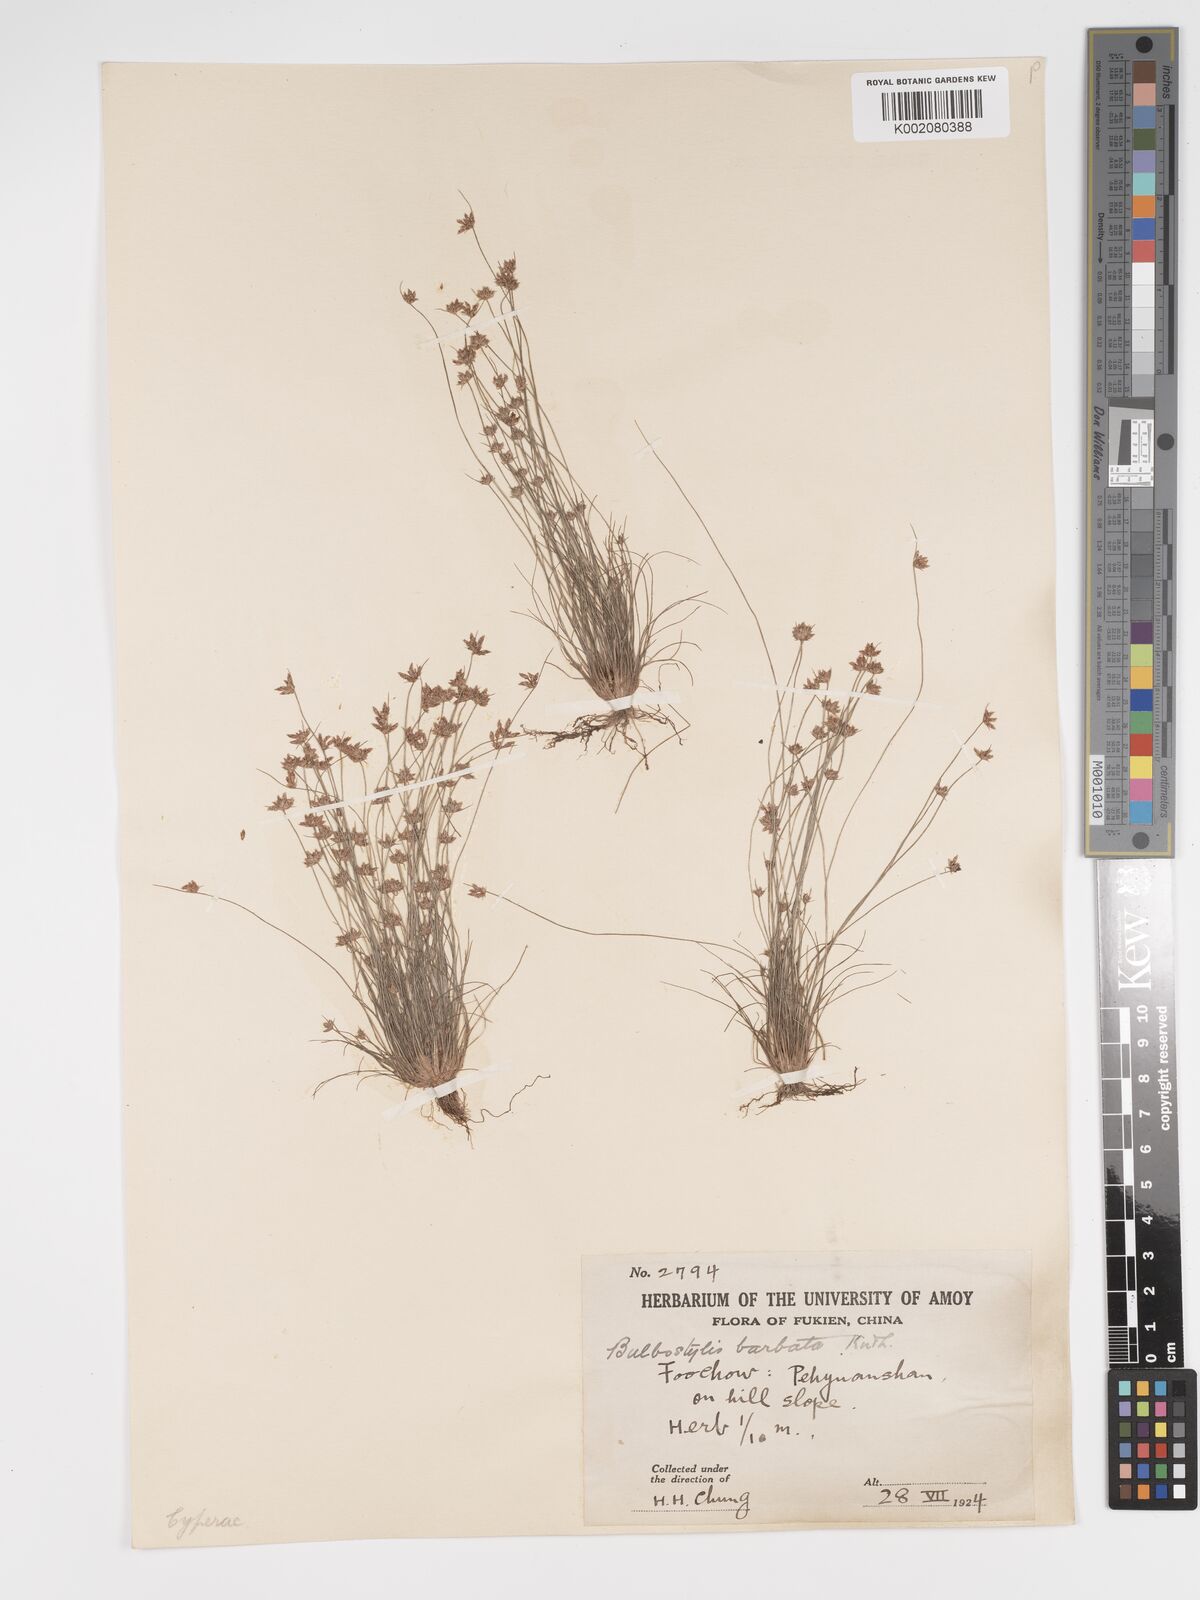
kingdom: Plantae
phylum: Tracheophyta
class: Liliopsida
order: Poales
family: Cyperaceae
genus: Bulbostylis
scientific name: Bulbostylis barbata
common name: Watergrass
